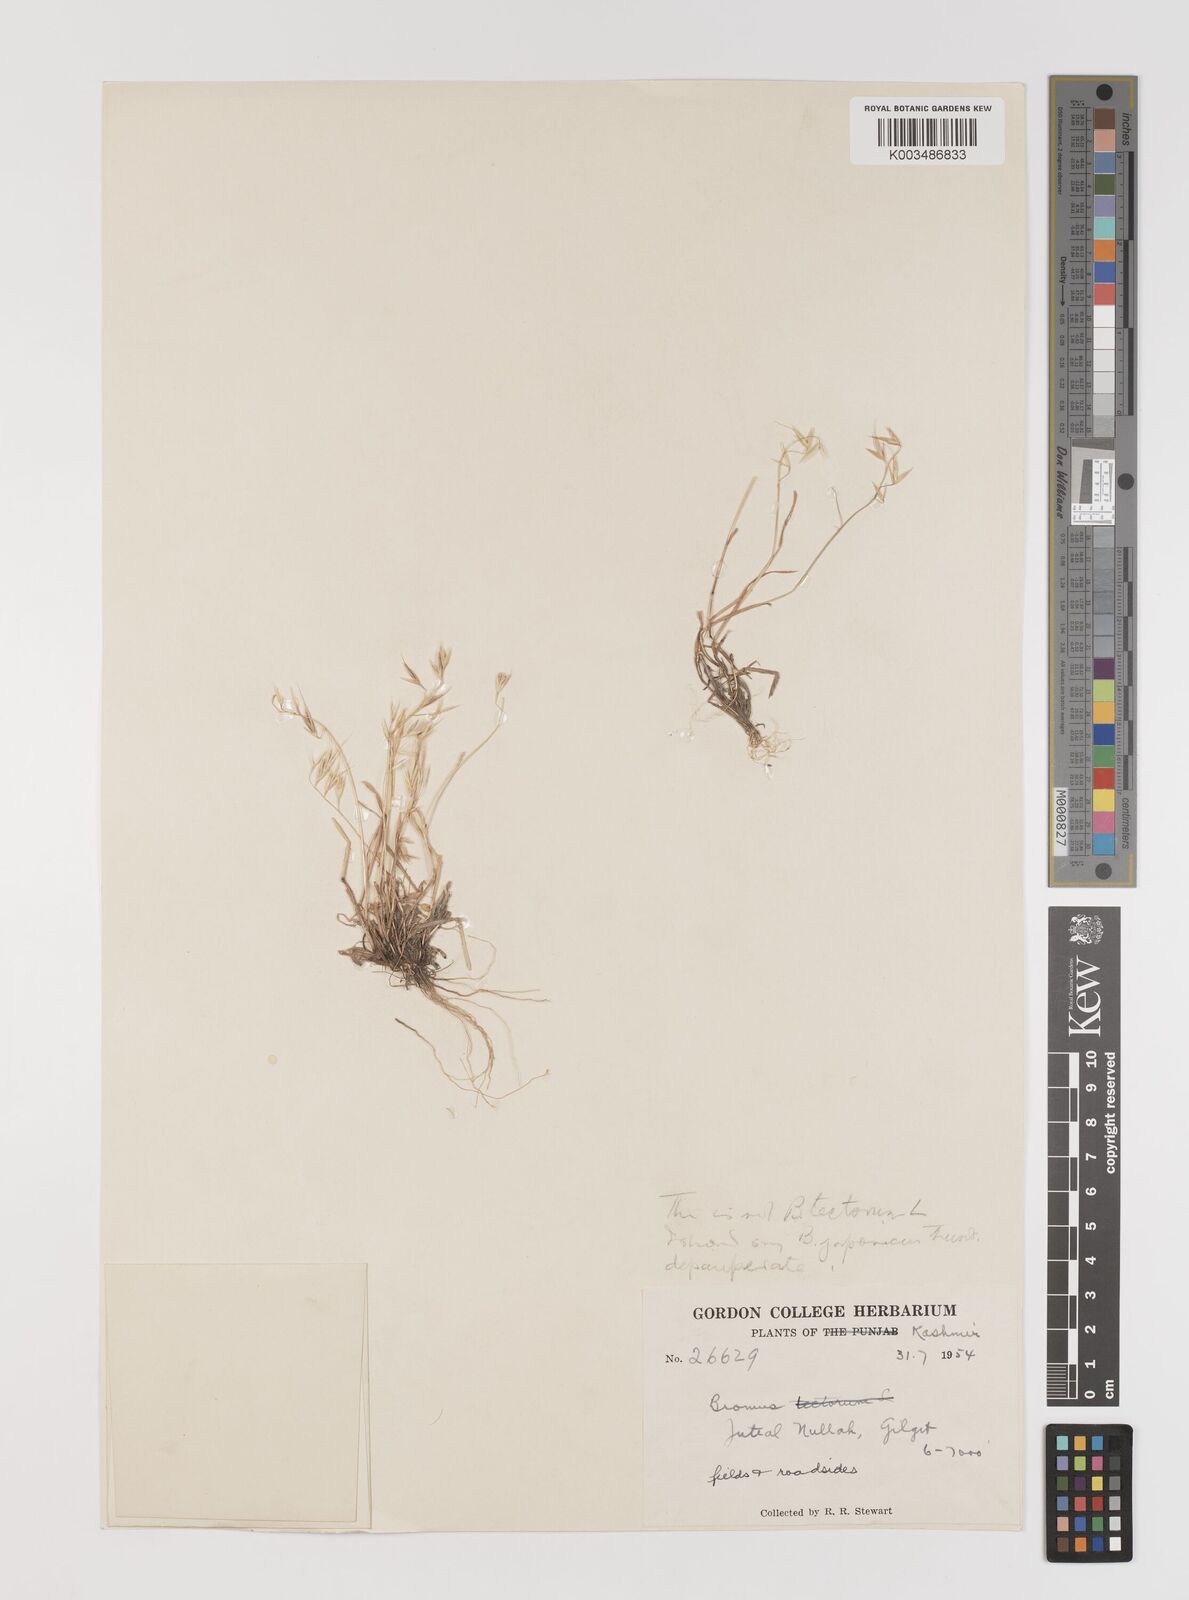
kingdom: Plantae
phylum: Tracheophyta
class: Liliopsida
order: Poales
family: Poaceae
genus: Bromus
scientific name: Bromus
